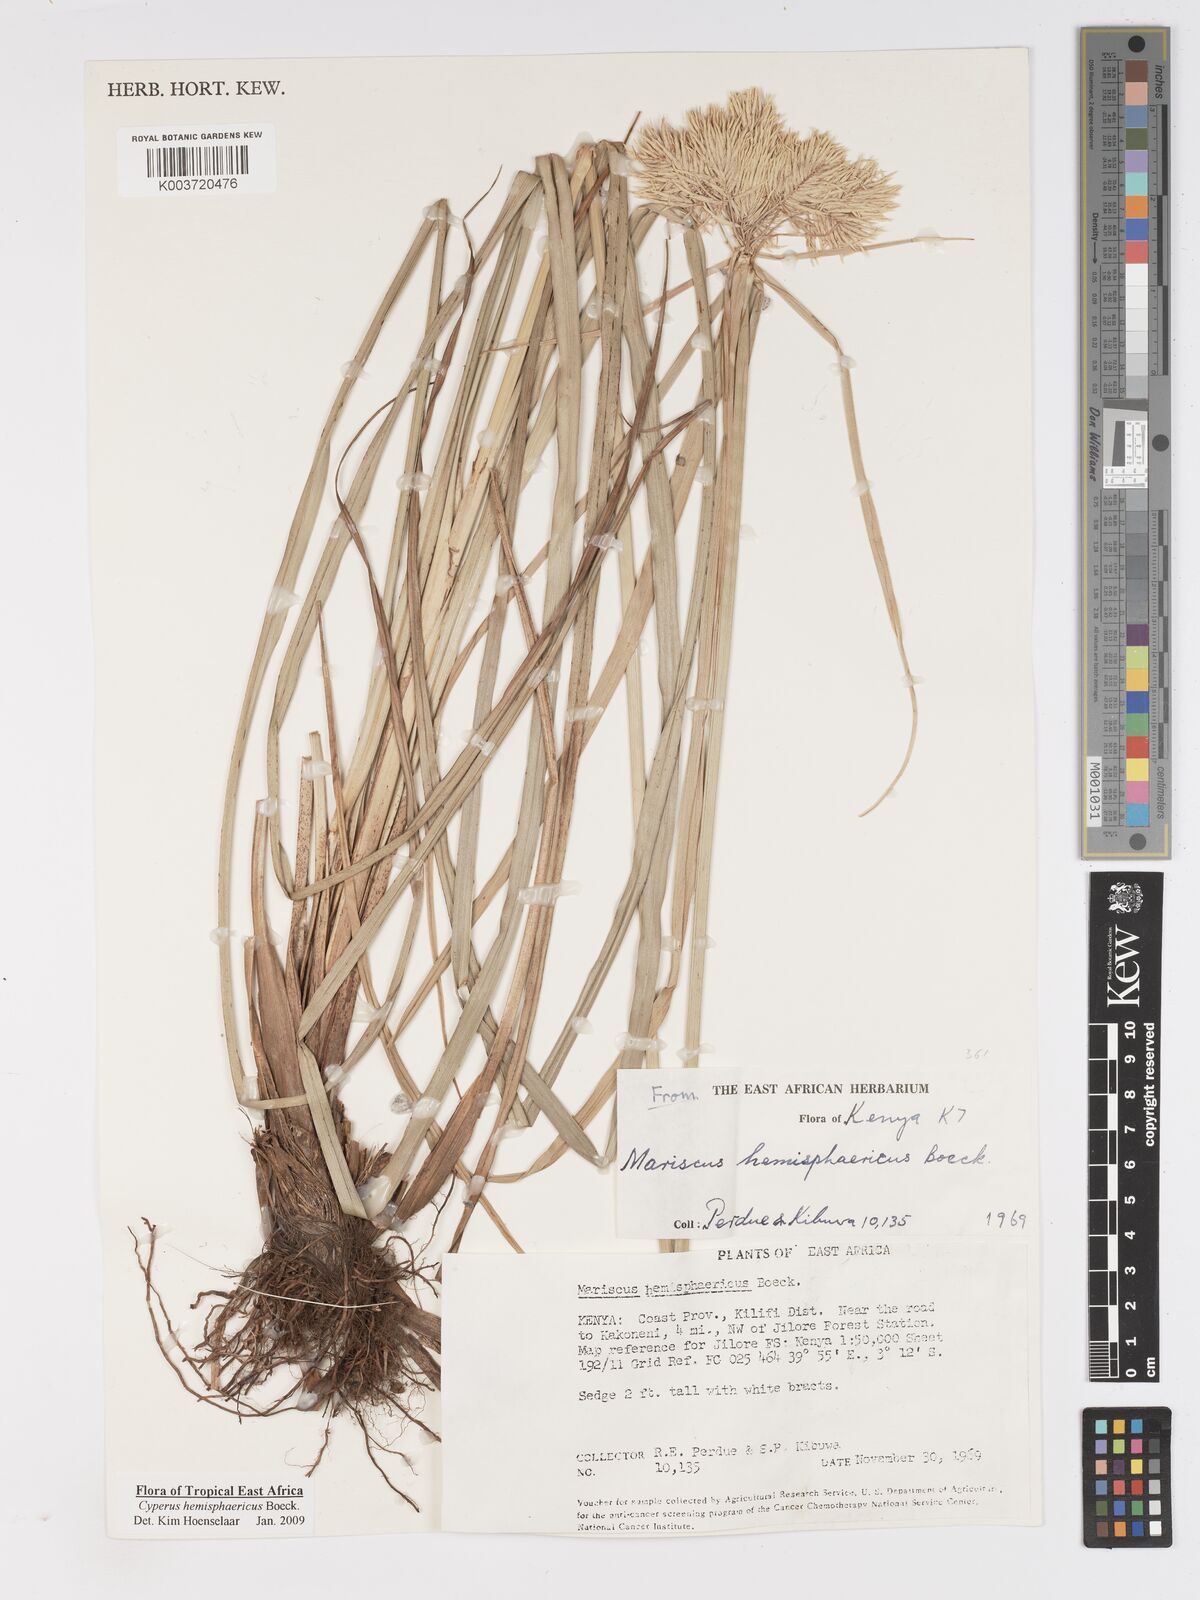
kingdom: Plantae
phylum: Tracheophyta
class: Liliopsida
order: Poales
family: Cyperaceae
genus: Cyperus
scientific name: Cyperus hemisphaericus
